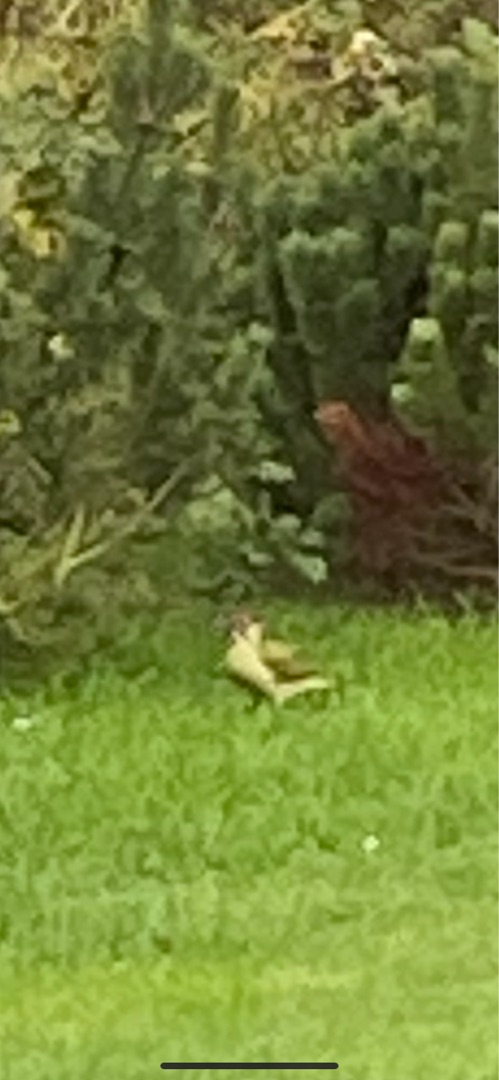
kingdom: Animalia
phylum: Chordata
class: Aves
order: Piciformes
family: Picidae
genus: Picus
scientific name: Picus viridis
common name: Grønspætte
